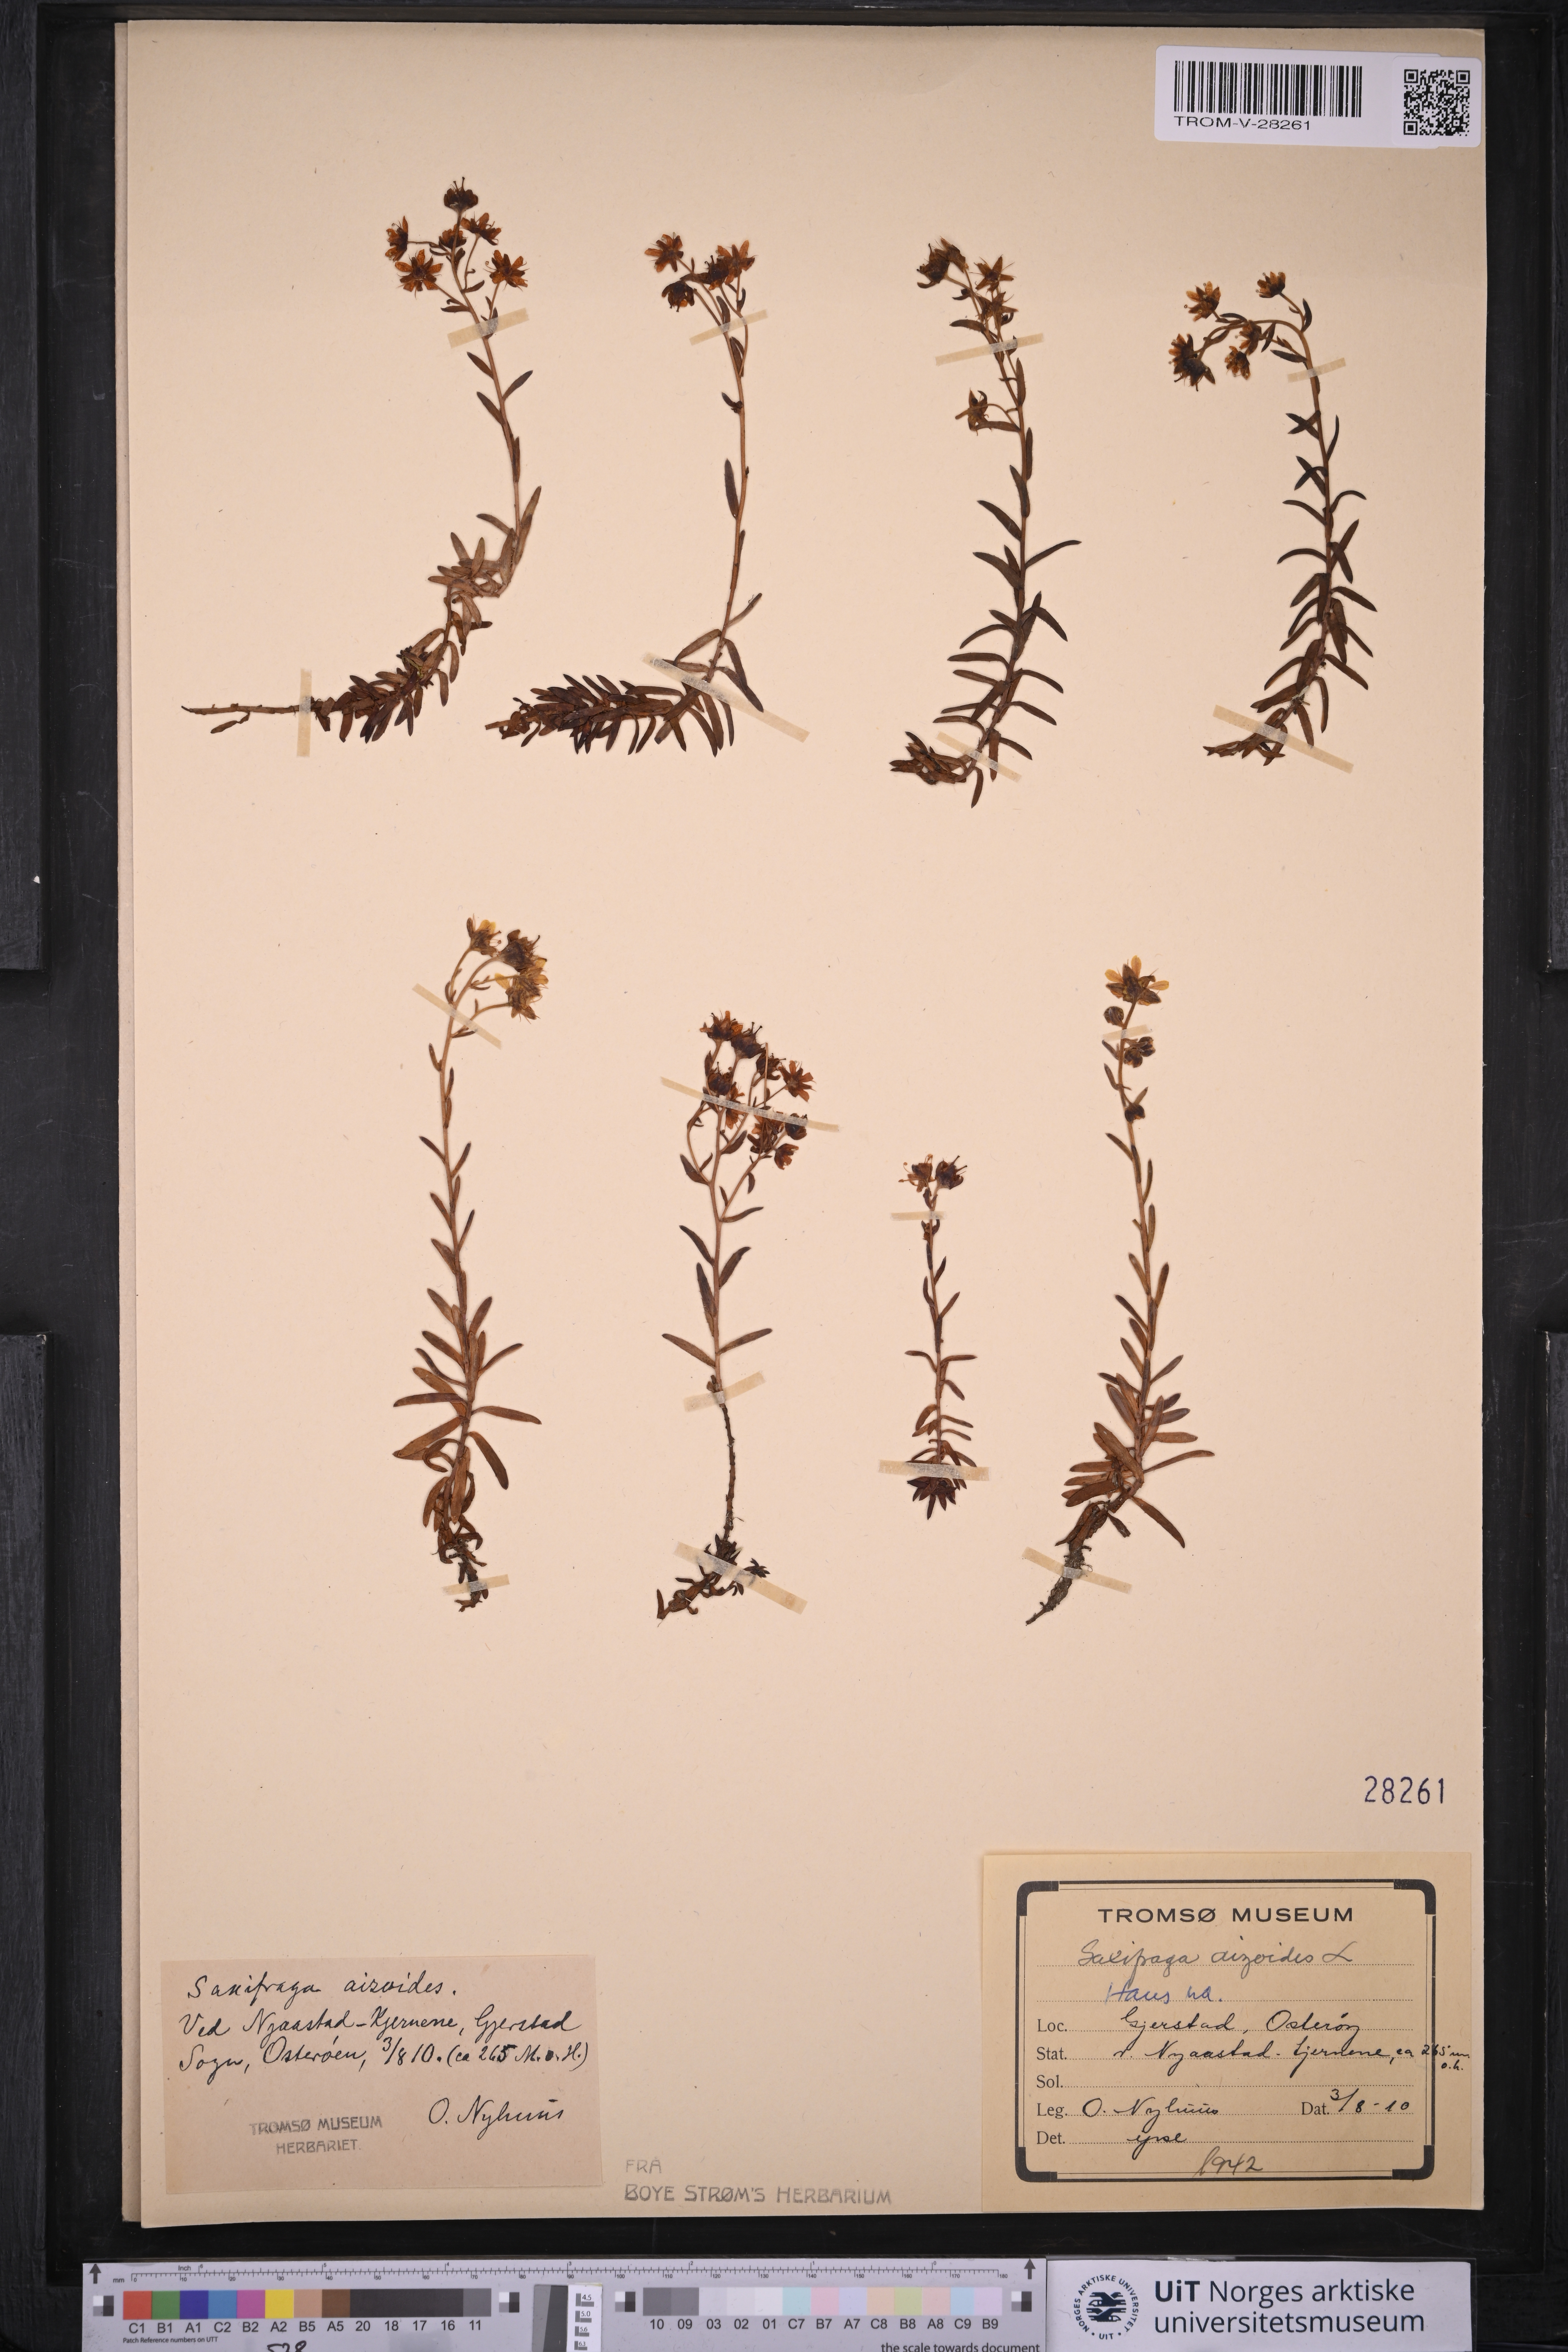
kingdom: Plantae
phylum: Tracheophyta
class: Magnoliopsida
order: Saxifragales
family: Saxifragaceae
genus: Saxifraga
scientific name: Saxifraga aizoides
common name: Yellow mountain saxifrage
